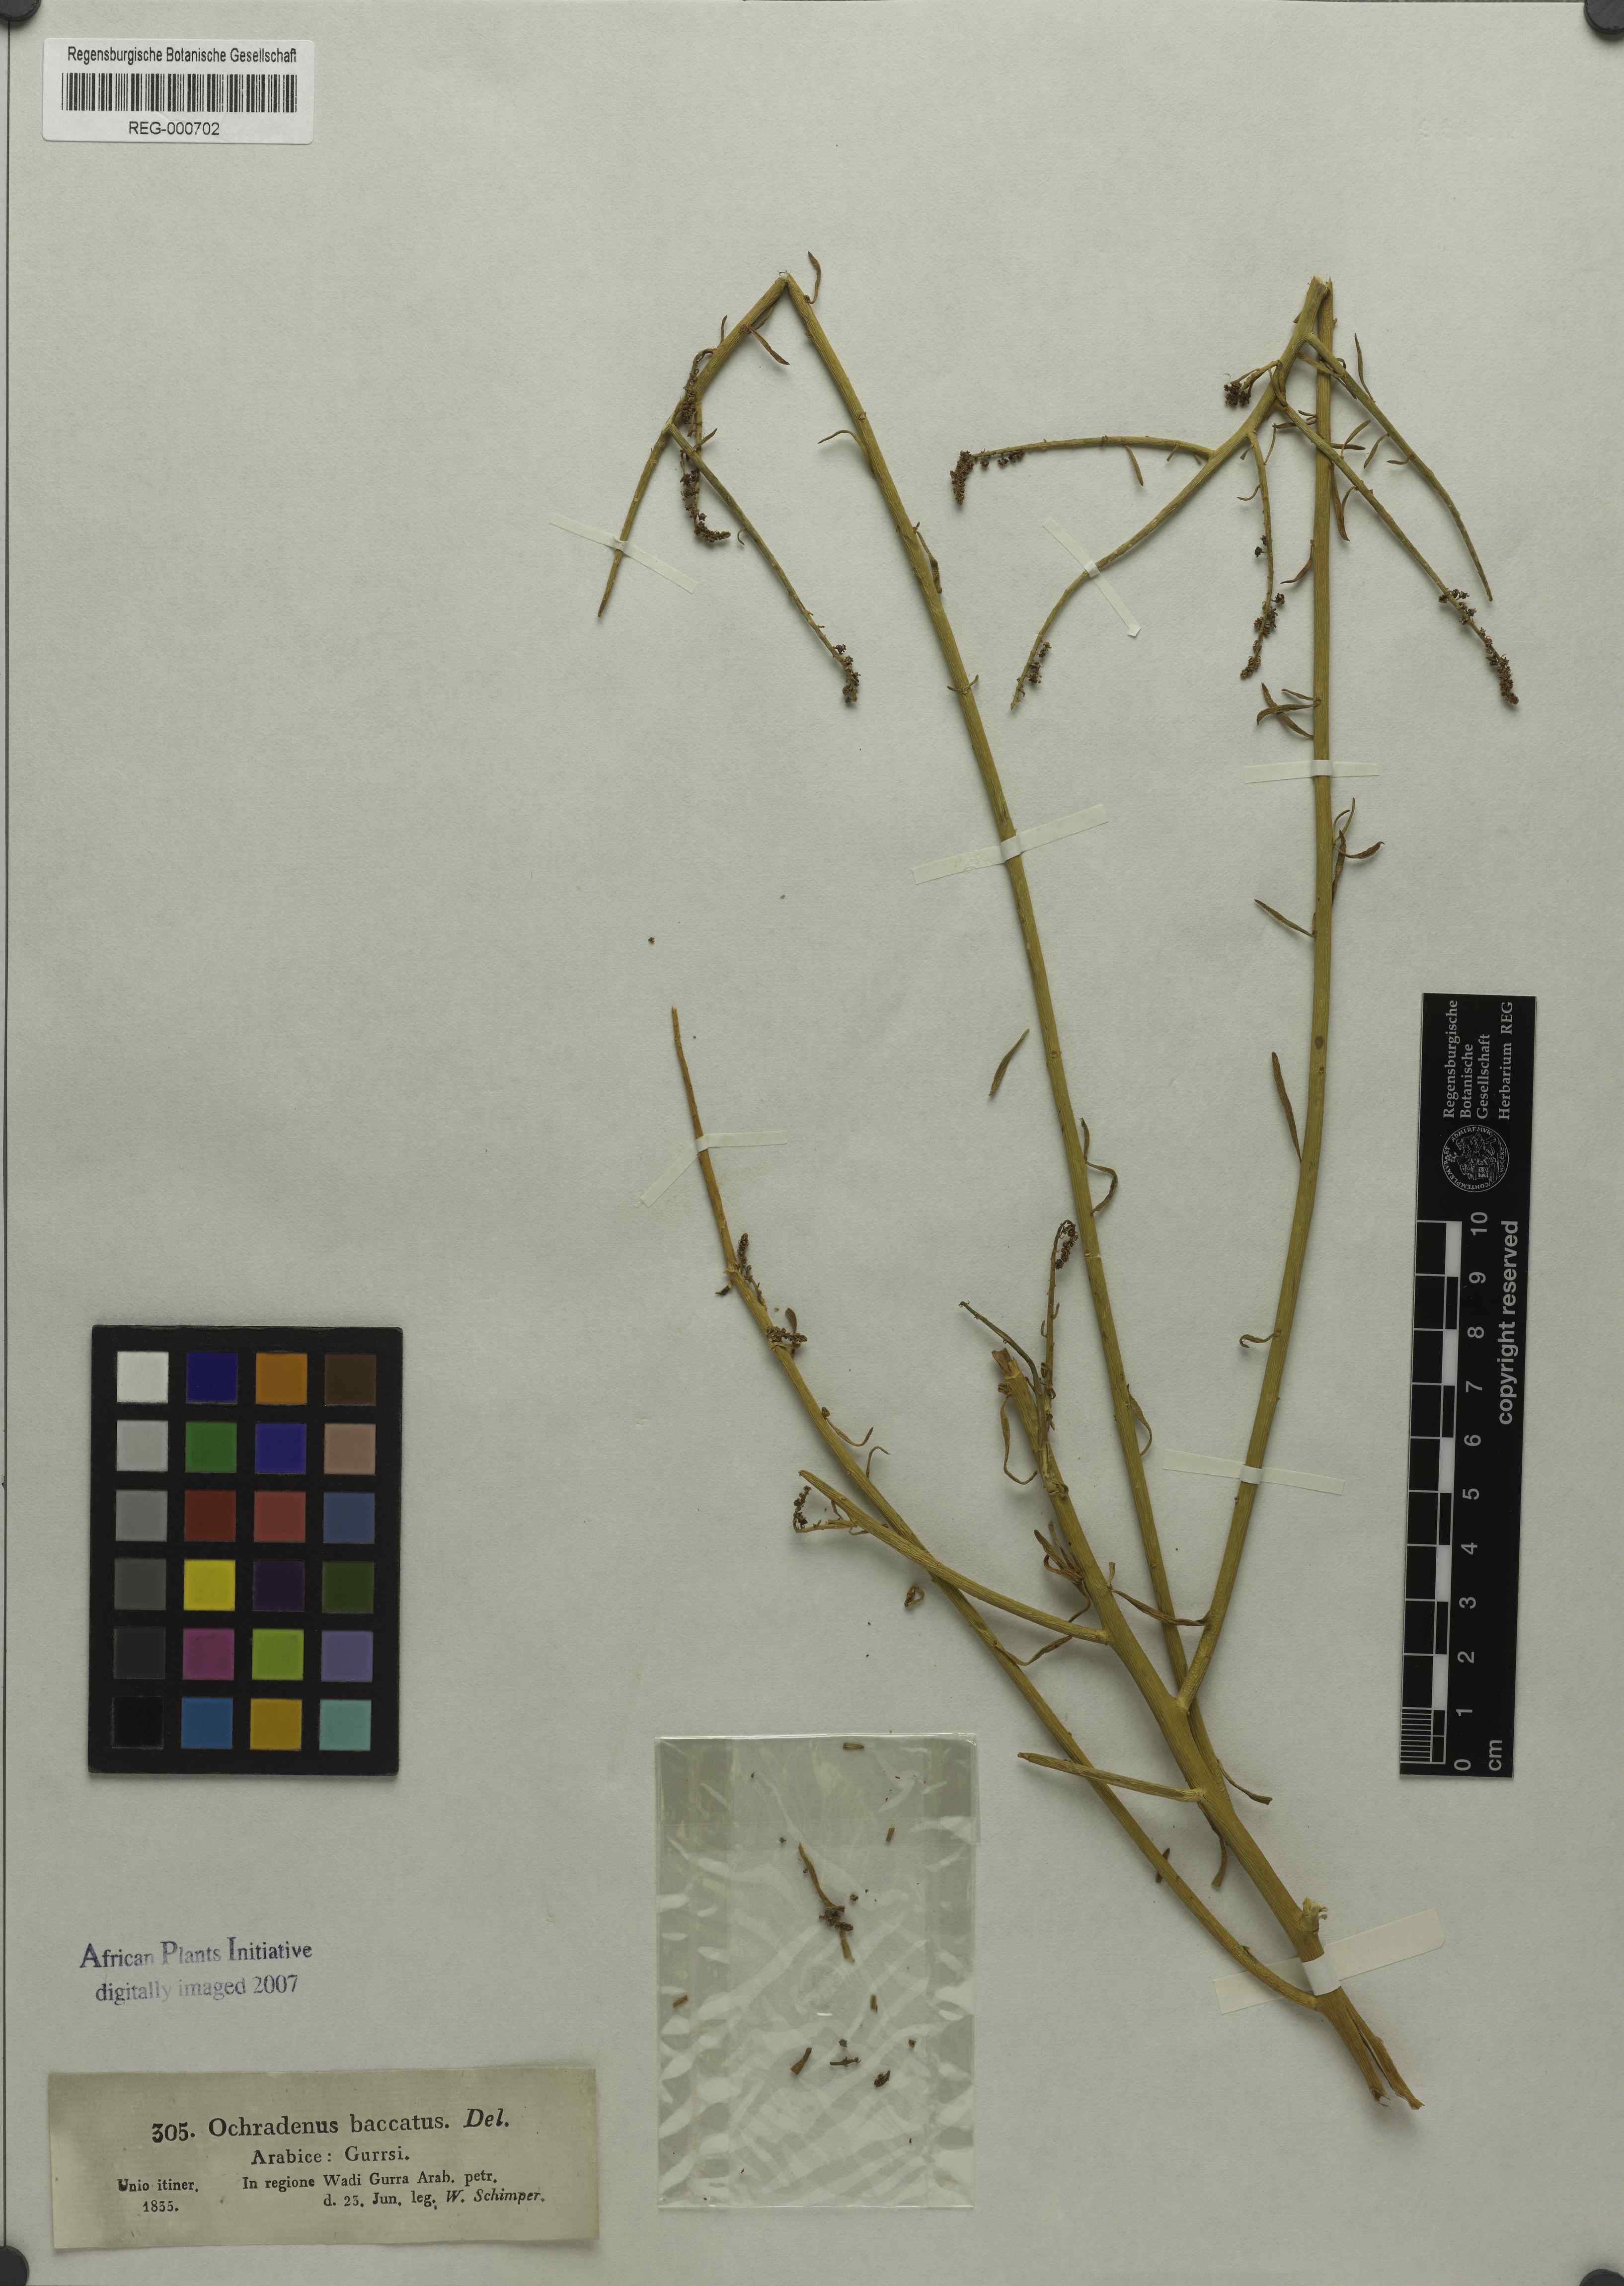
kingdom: Plantae
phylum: Tracheophyta
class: Magnoliopsida
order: Brassicales
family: Resedaceae
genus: Ochradenus
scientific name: Ochradenus baccatus
